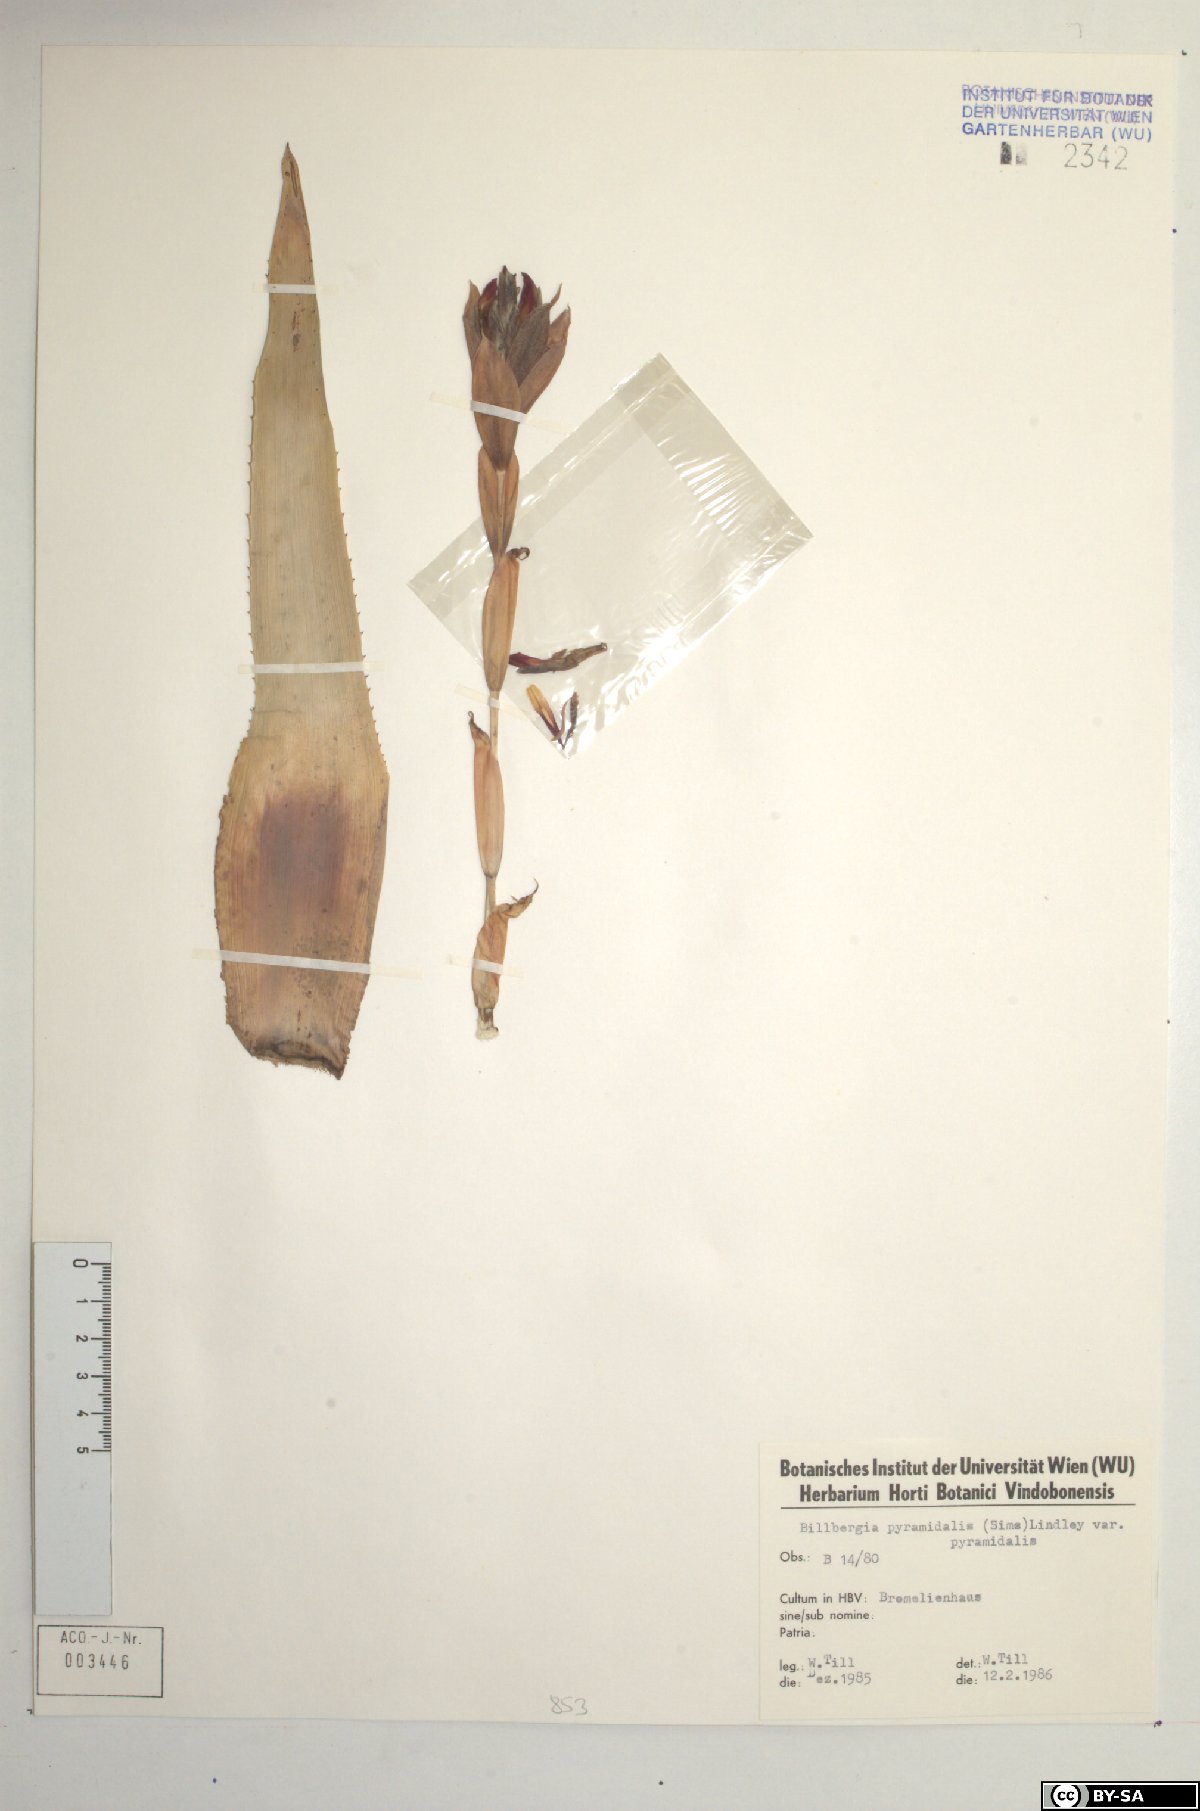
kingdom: Plantae
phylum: Tracheophyta
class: Liliopsida
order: Poales
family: Bromeliaceae
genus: Billbergia
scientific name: Billbergia pyramidalis
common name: Foolproofplant
